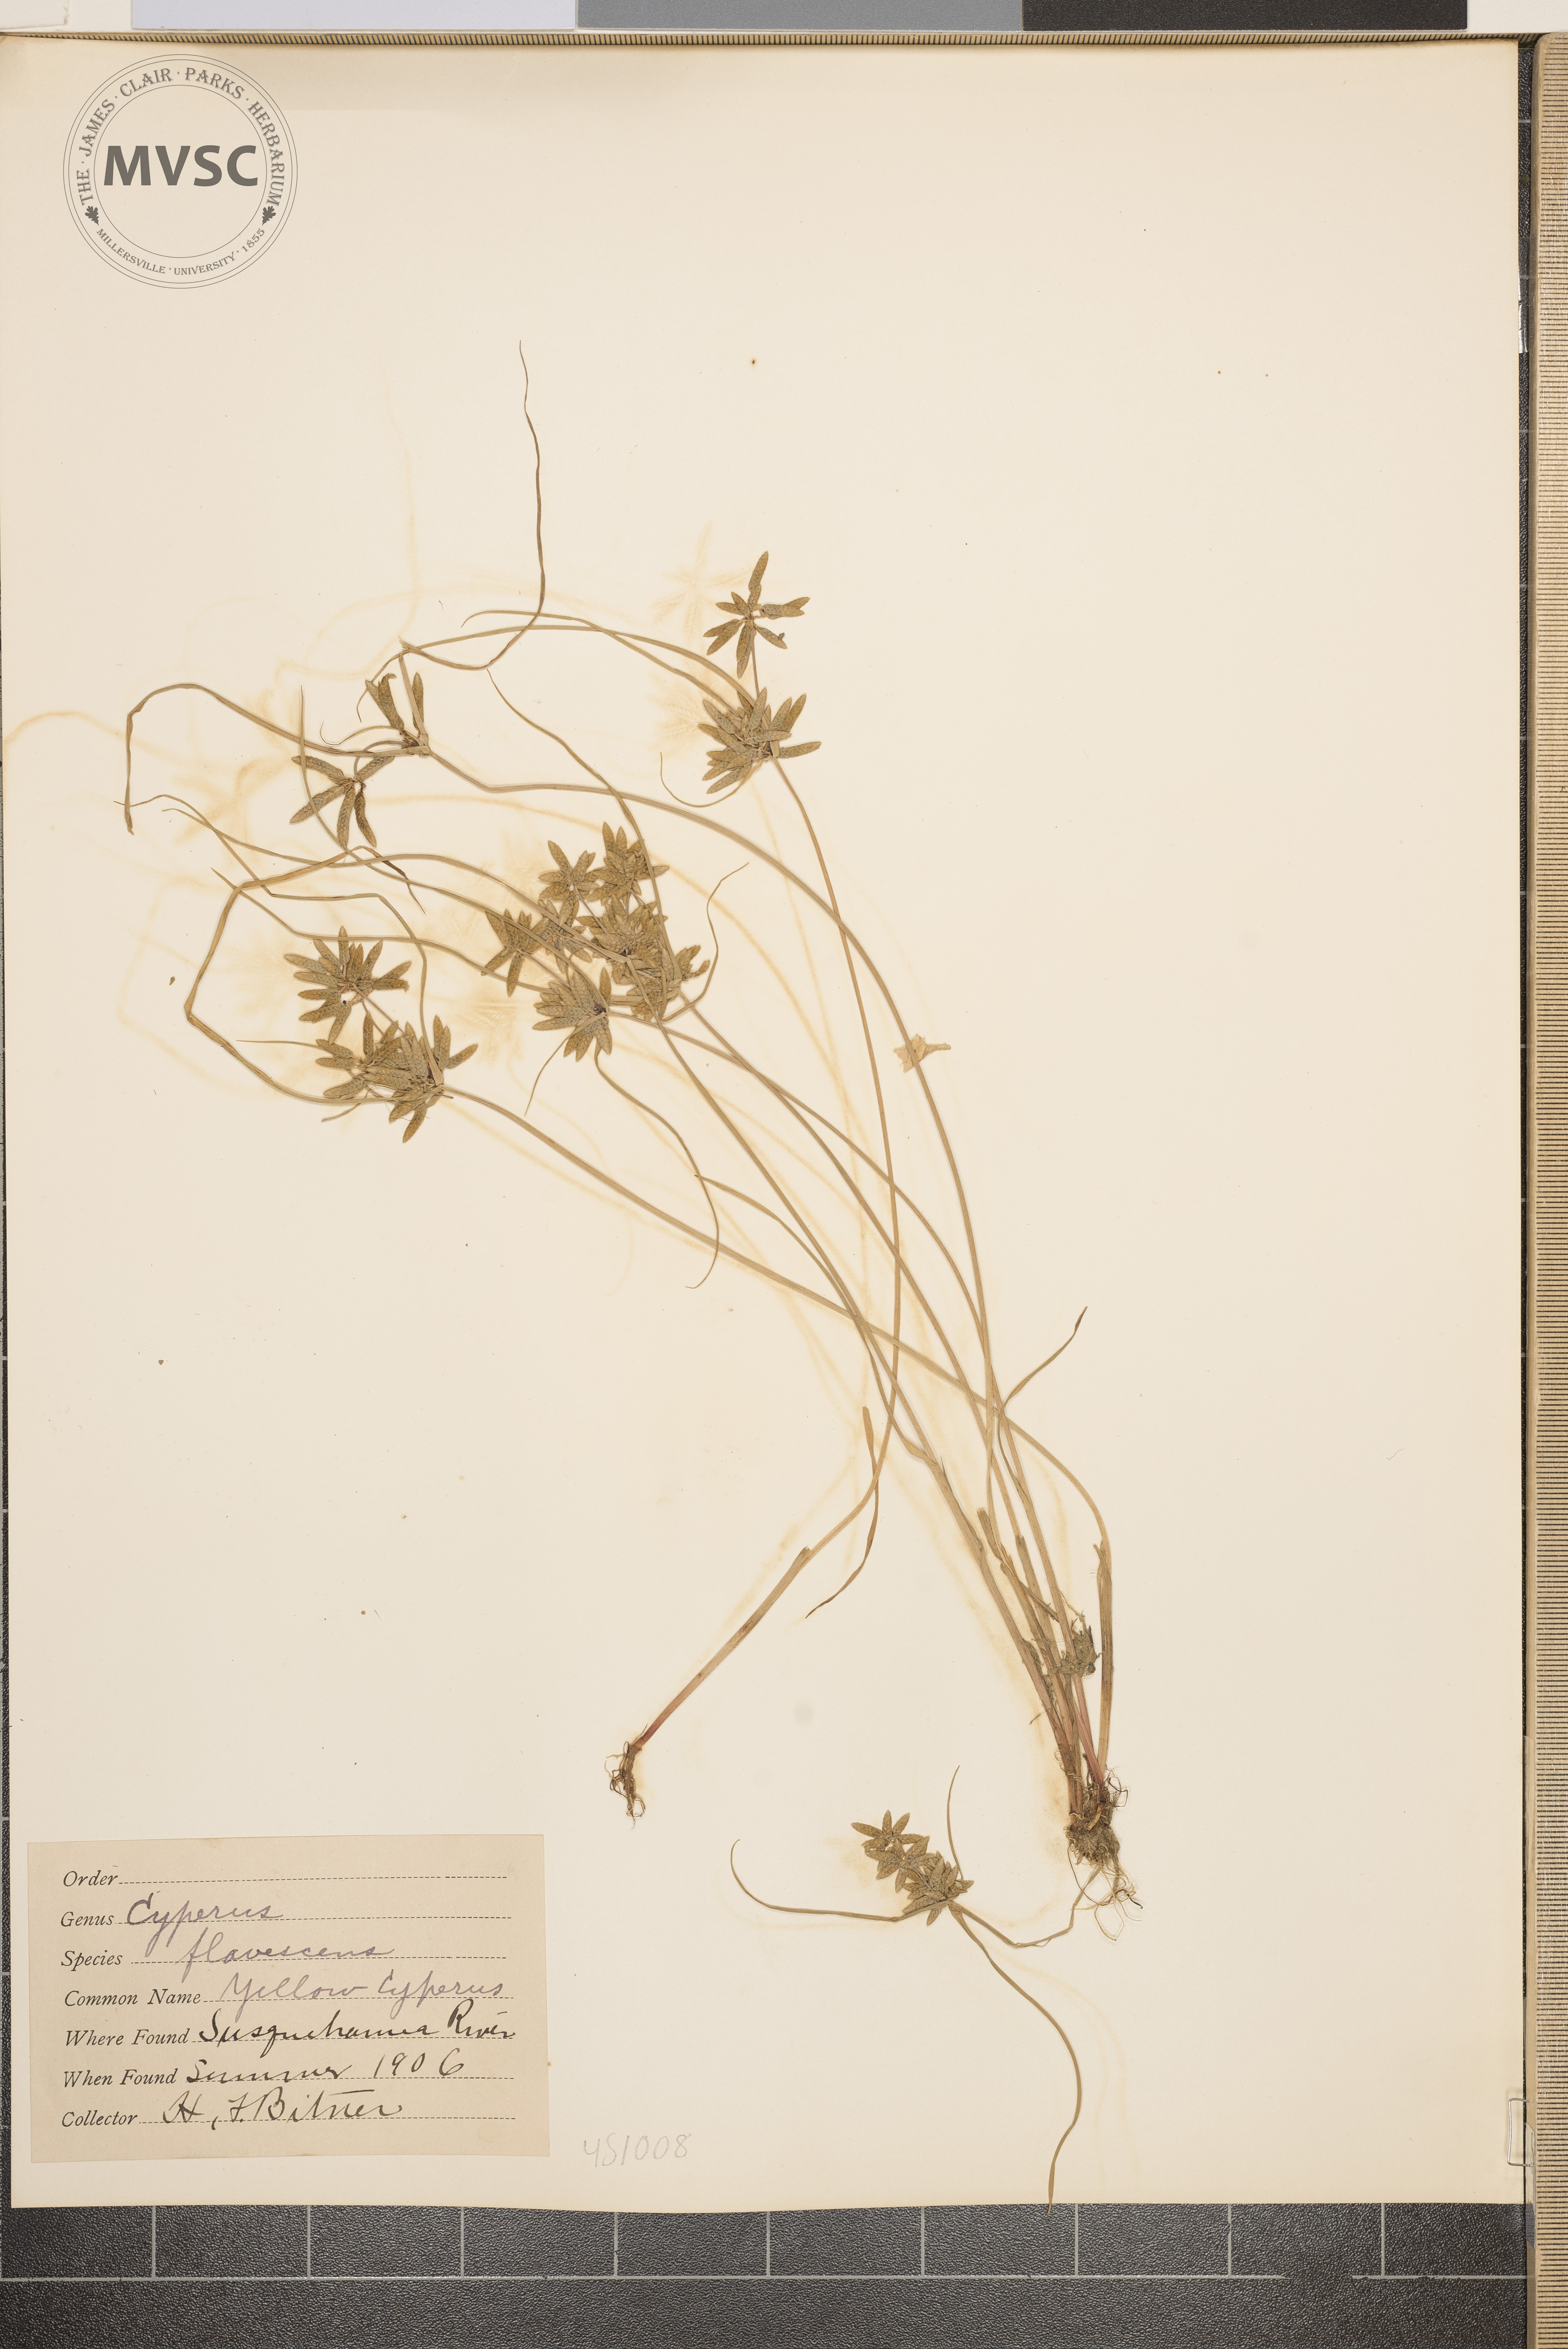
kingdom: Plantae
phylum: Tracheophyta
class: Liliopsida
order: Poales
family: Cyperaceae
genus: Cyperus
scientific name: Cyperus flavescens
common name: Yellow Cyperus
